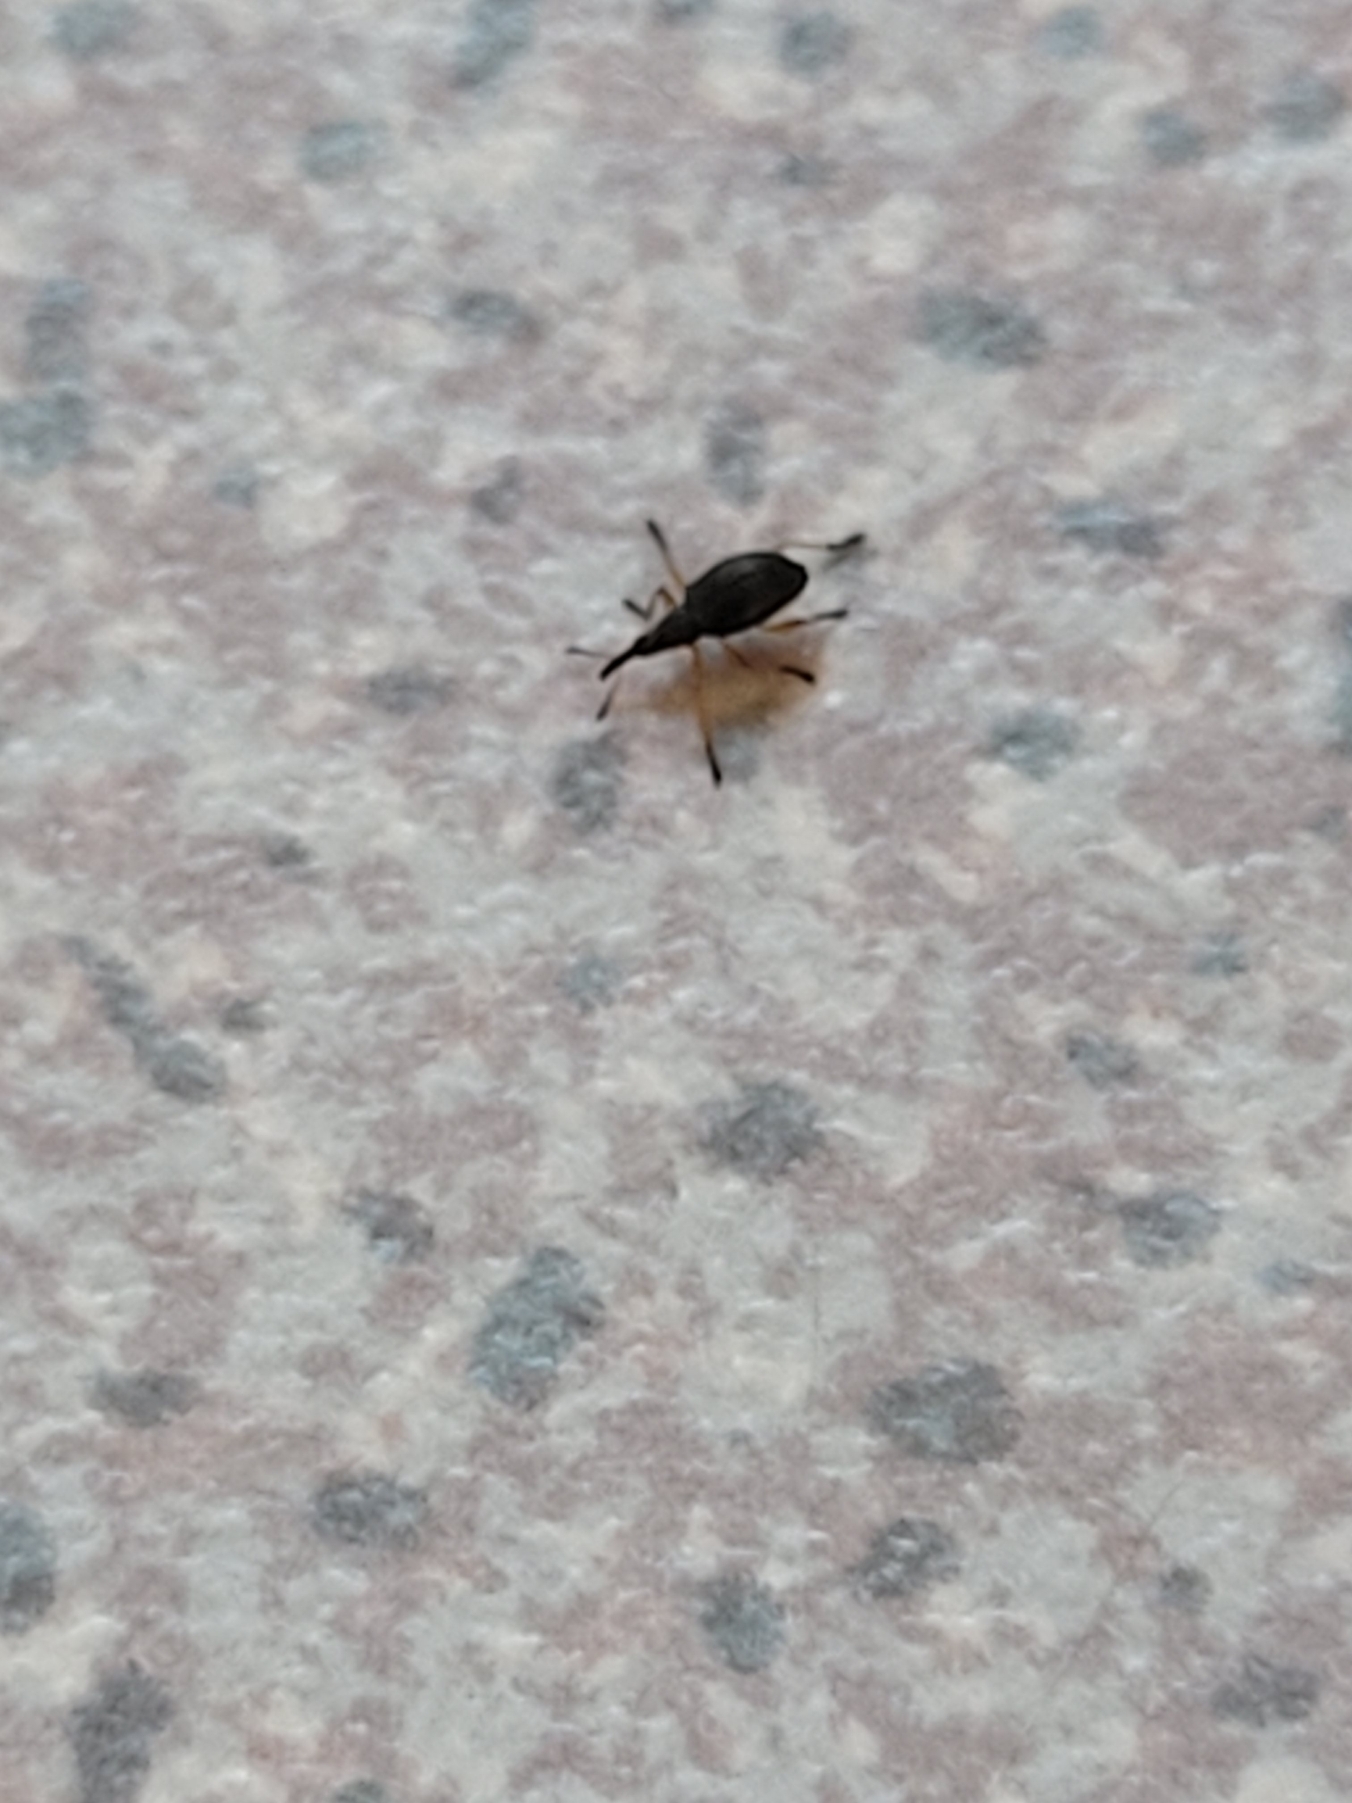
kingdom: Animalia
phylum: Arthropoda
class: Insecta
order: Coleoptera
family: Apionidae
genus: Protapion
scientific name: Protapion fulvipes
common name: Hvidkløversnudebille
